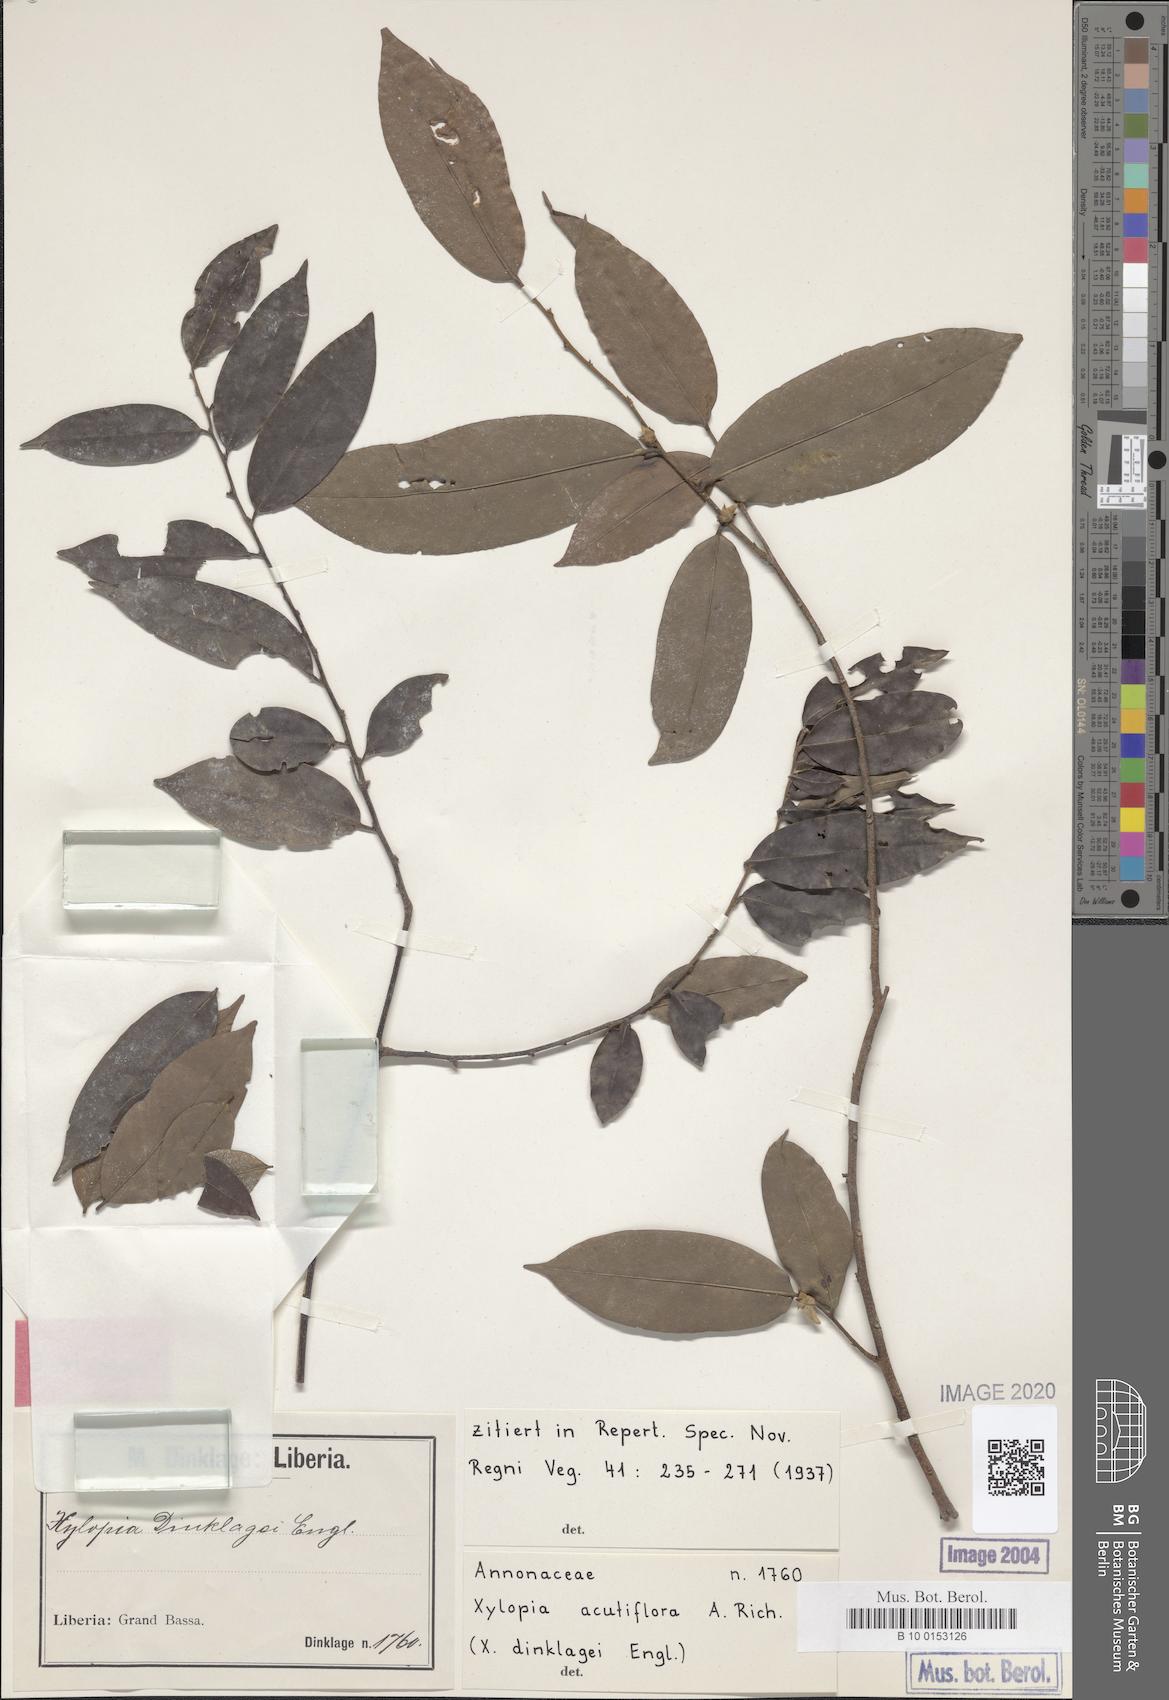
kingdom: Plantae
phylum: Tracheophyta
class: Magnoliopsida
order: Magnoliales
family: Annonaceae
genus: Xylopia
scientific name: Xylopia acutiflora
